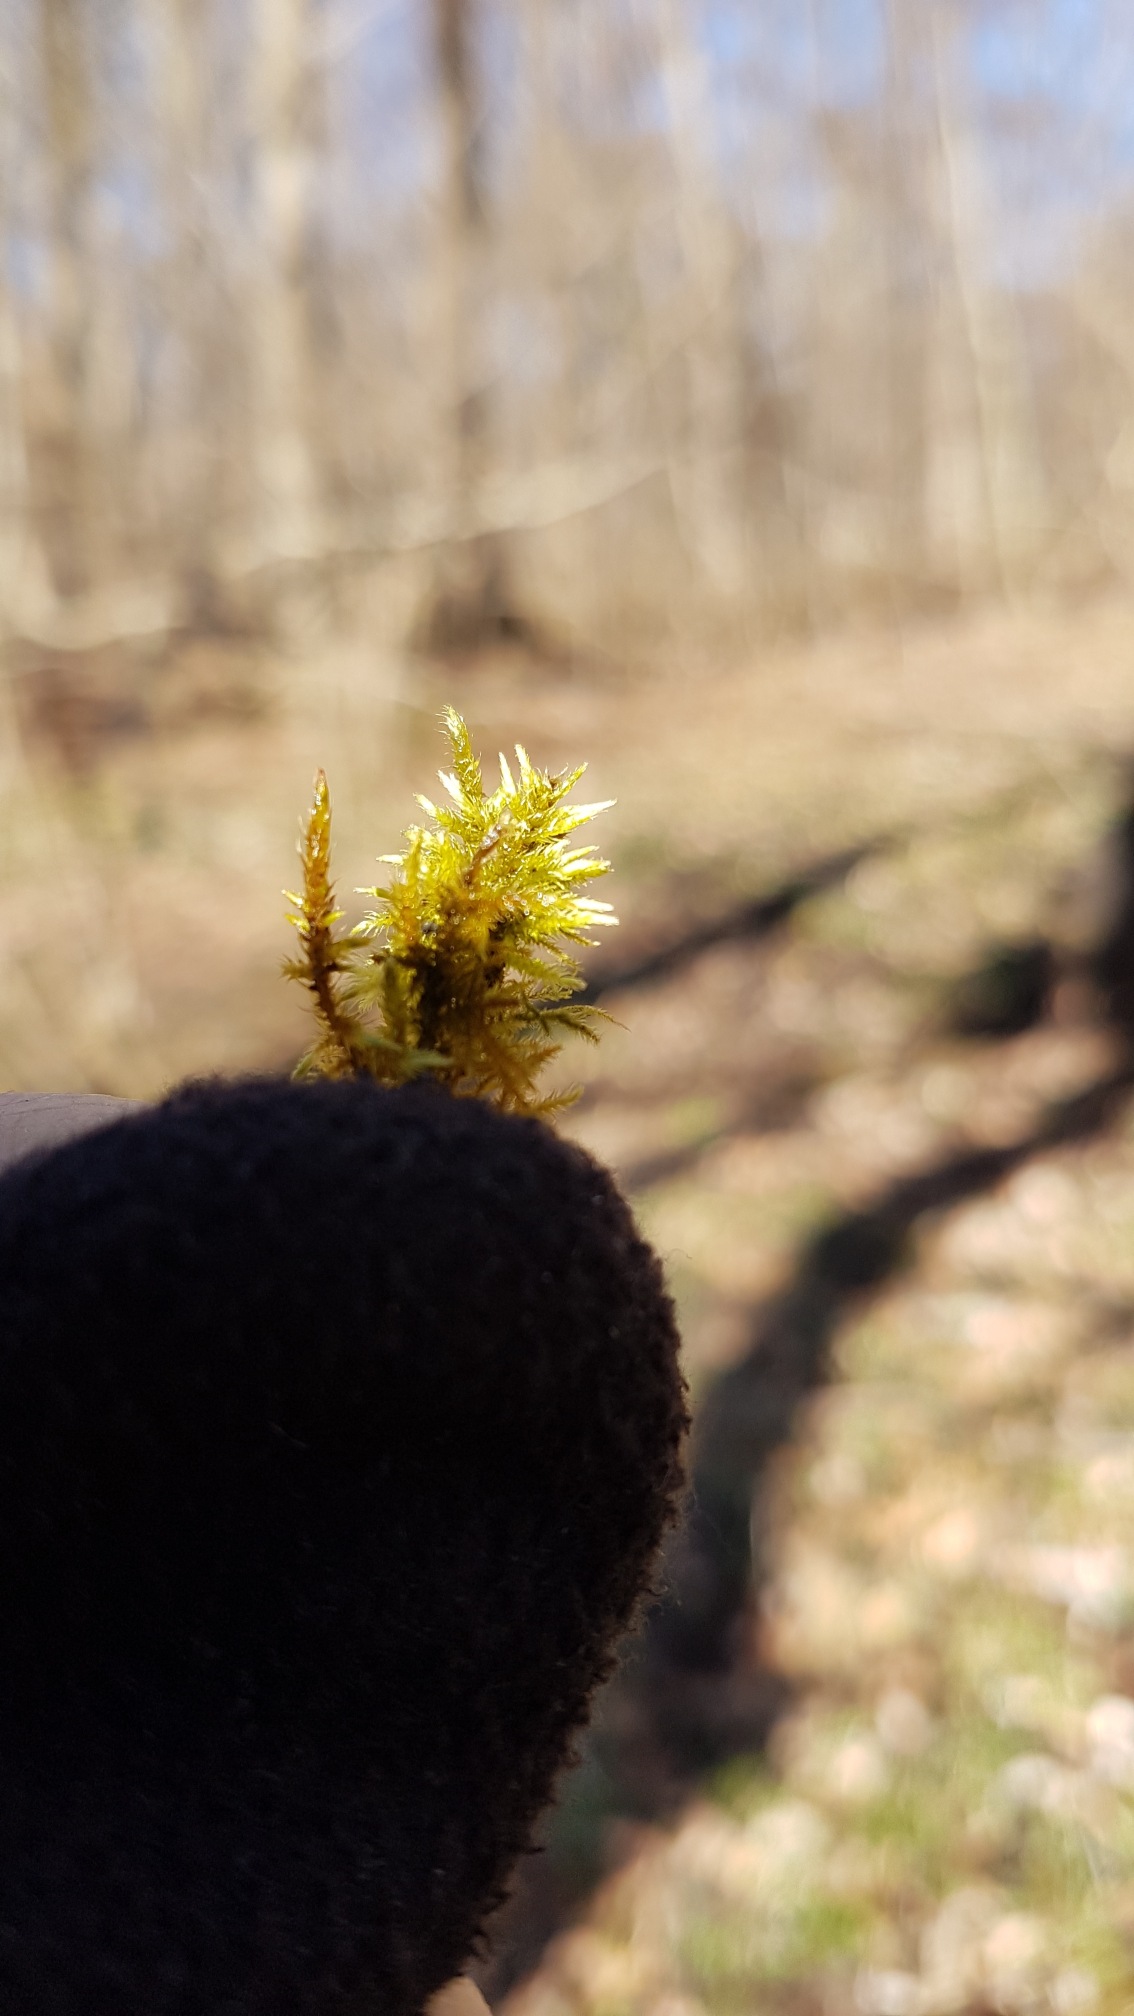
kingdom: Plantae
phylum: Bryophyta
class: Bryopsida
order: Hypnales
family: Amblystegiaceae
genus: Cratoneuron
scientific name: Cratoneuron filicinum
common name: Grøn eremitmos
